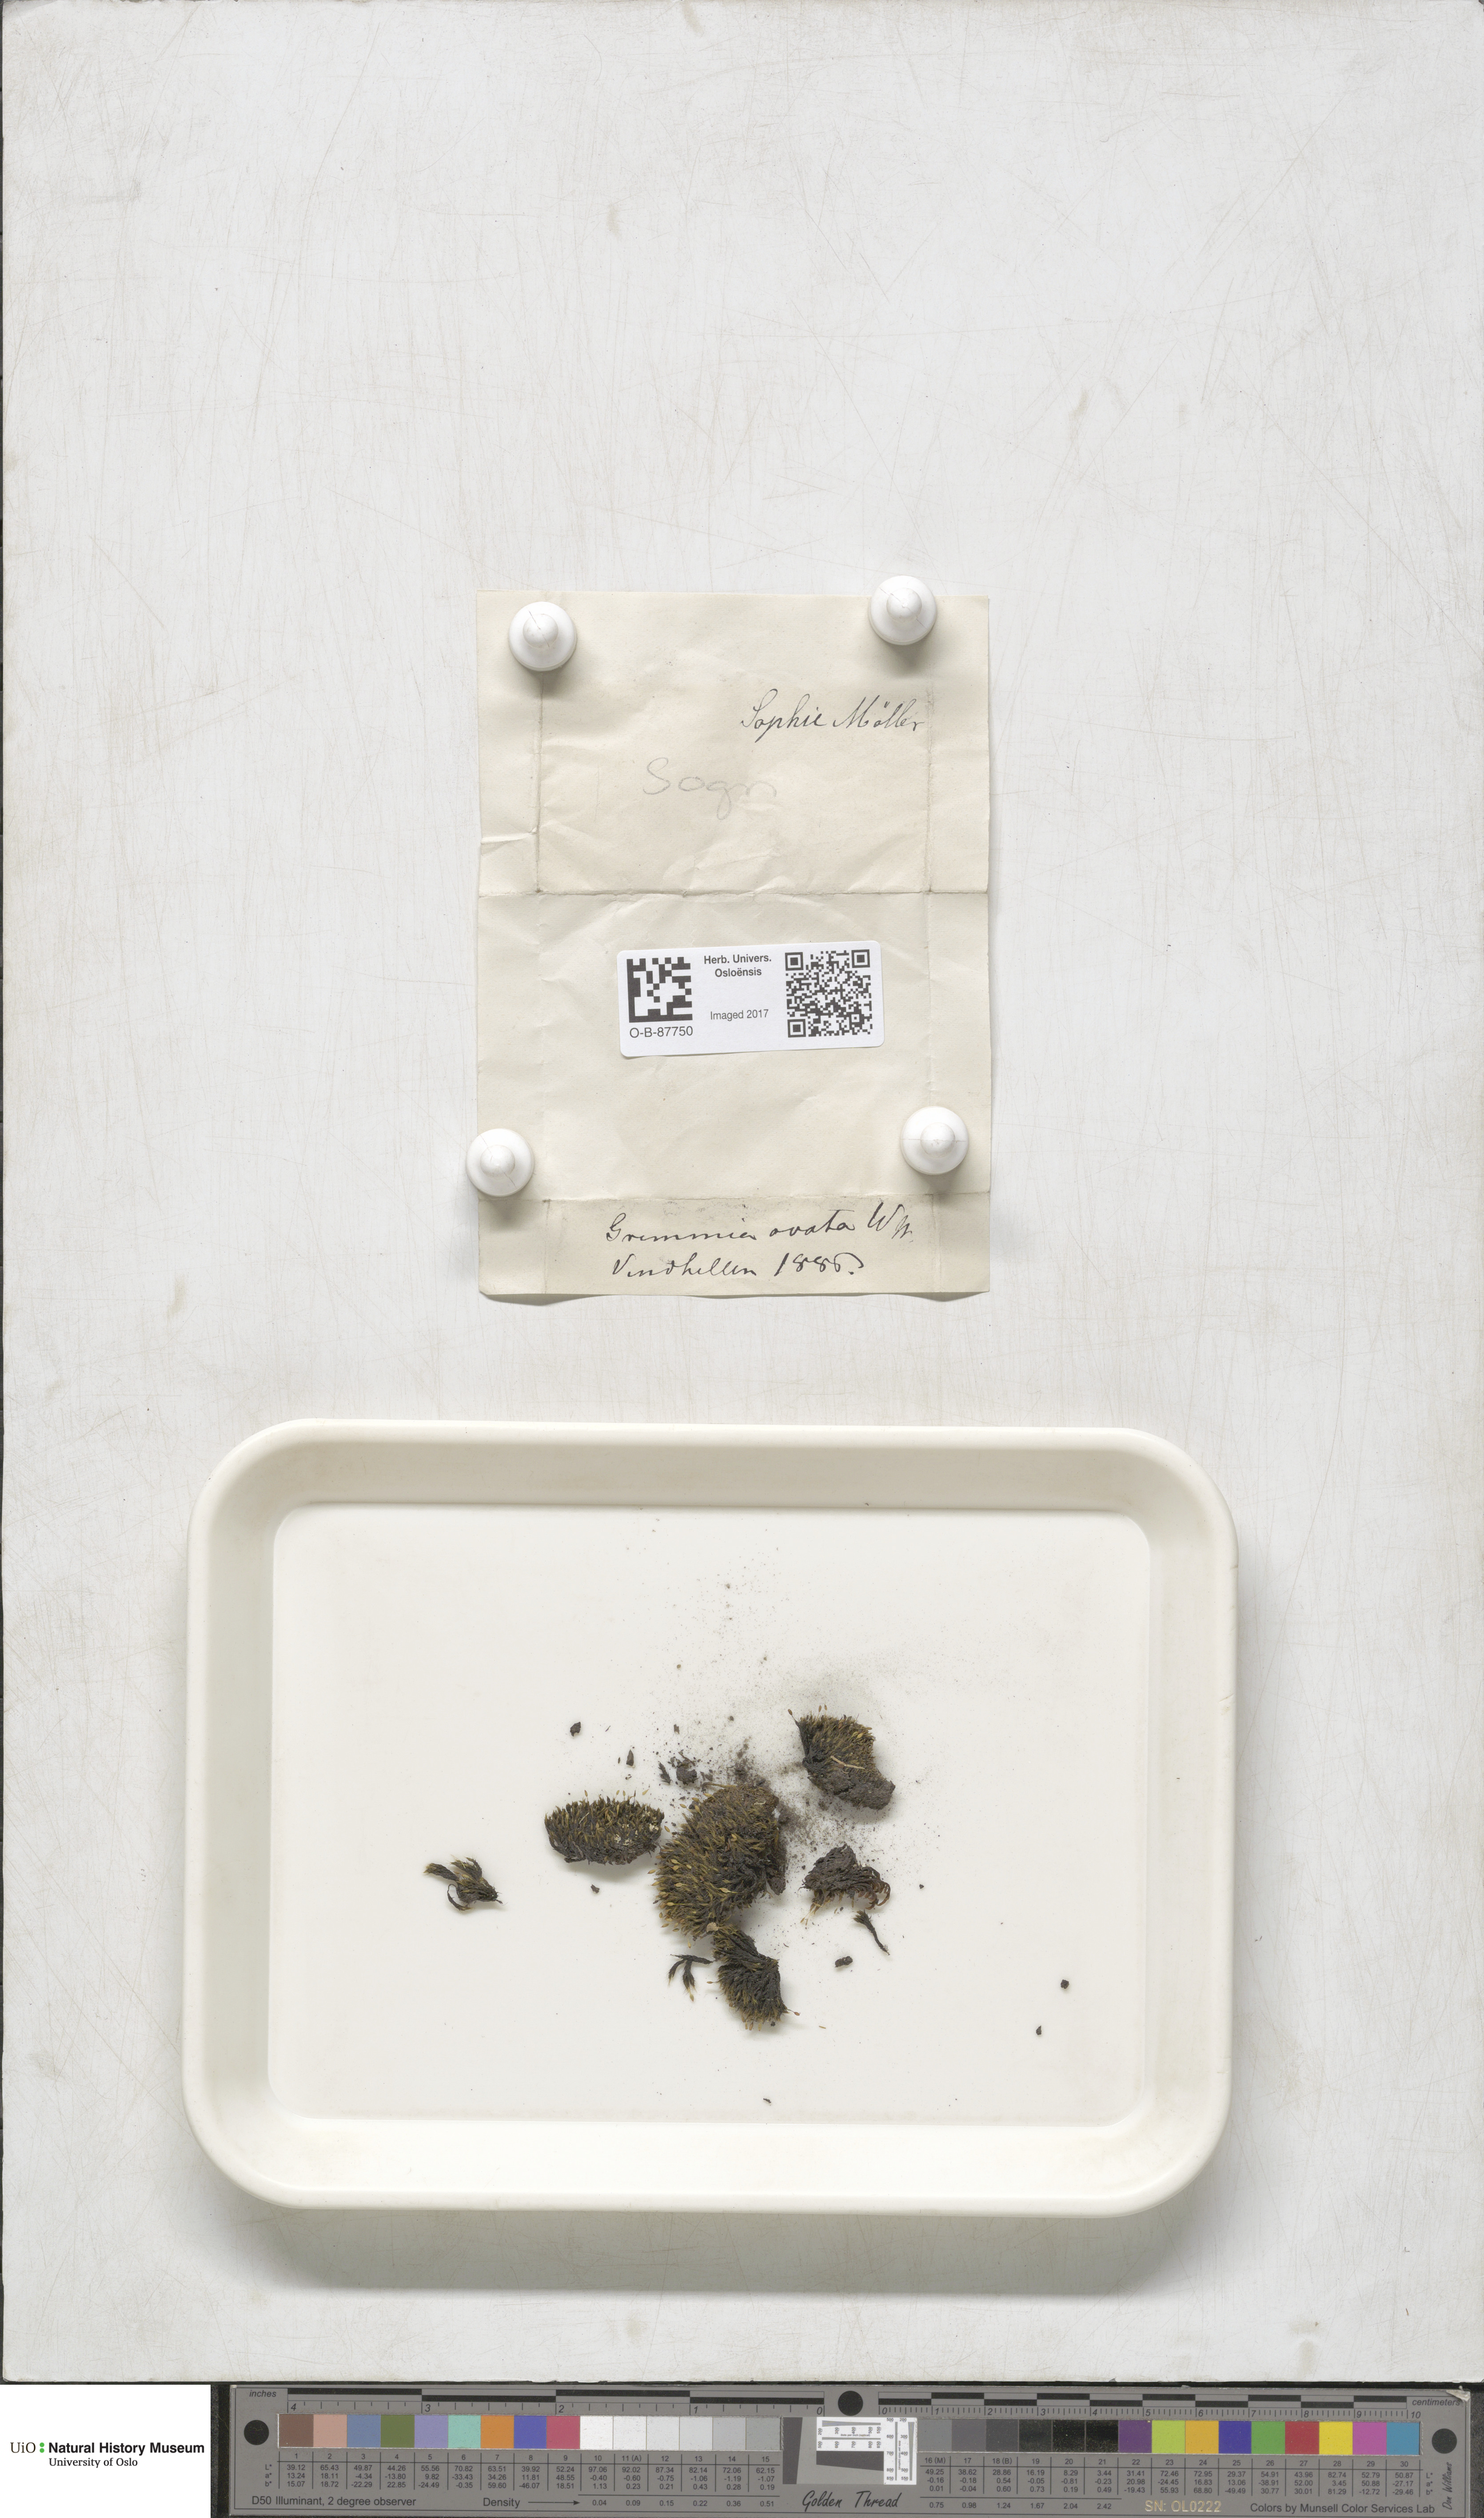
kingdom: Plantae
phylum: Bryophyta
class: Bryopsida
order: Grimmiales
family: Grimmiaceae
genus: Grimmia
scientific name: Grimmia ovalis
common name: Oval grimmia
